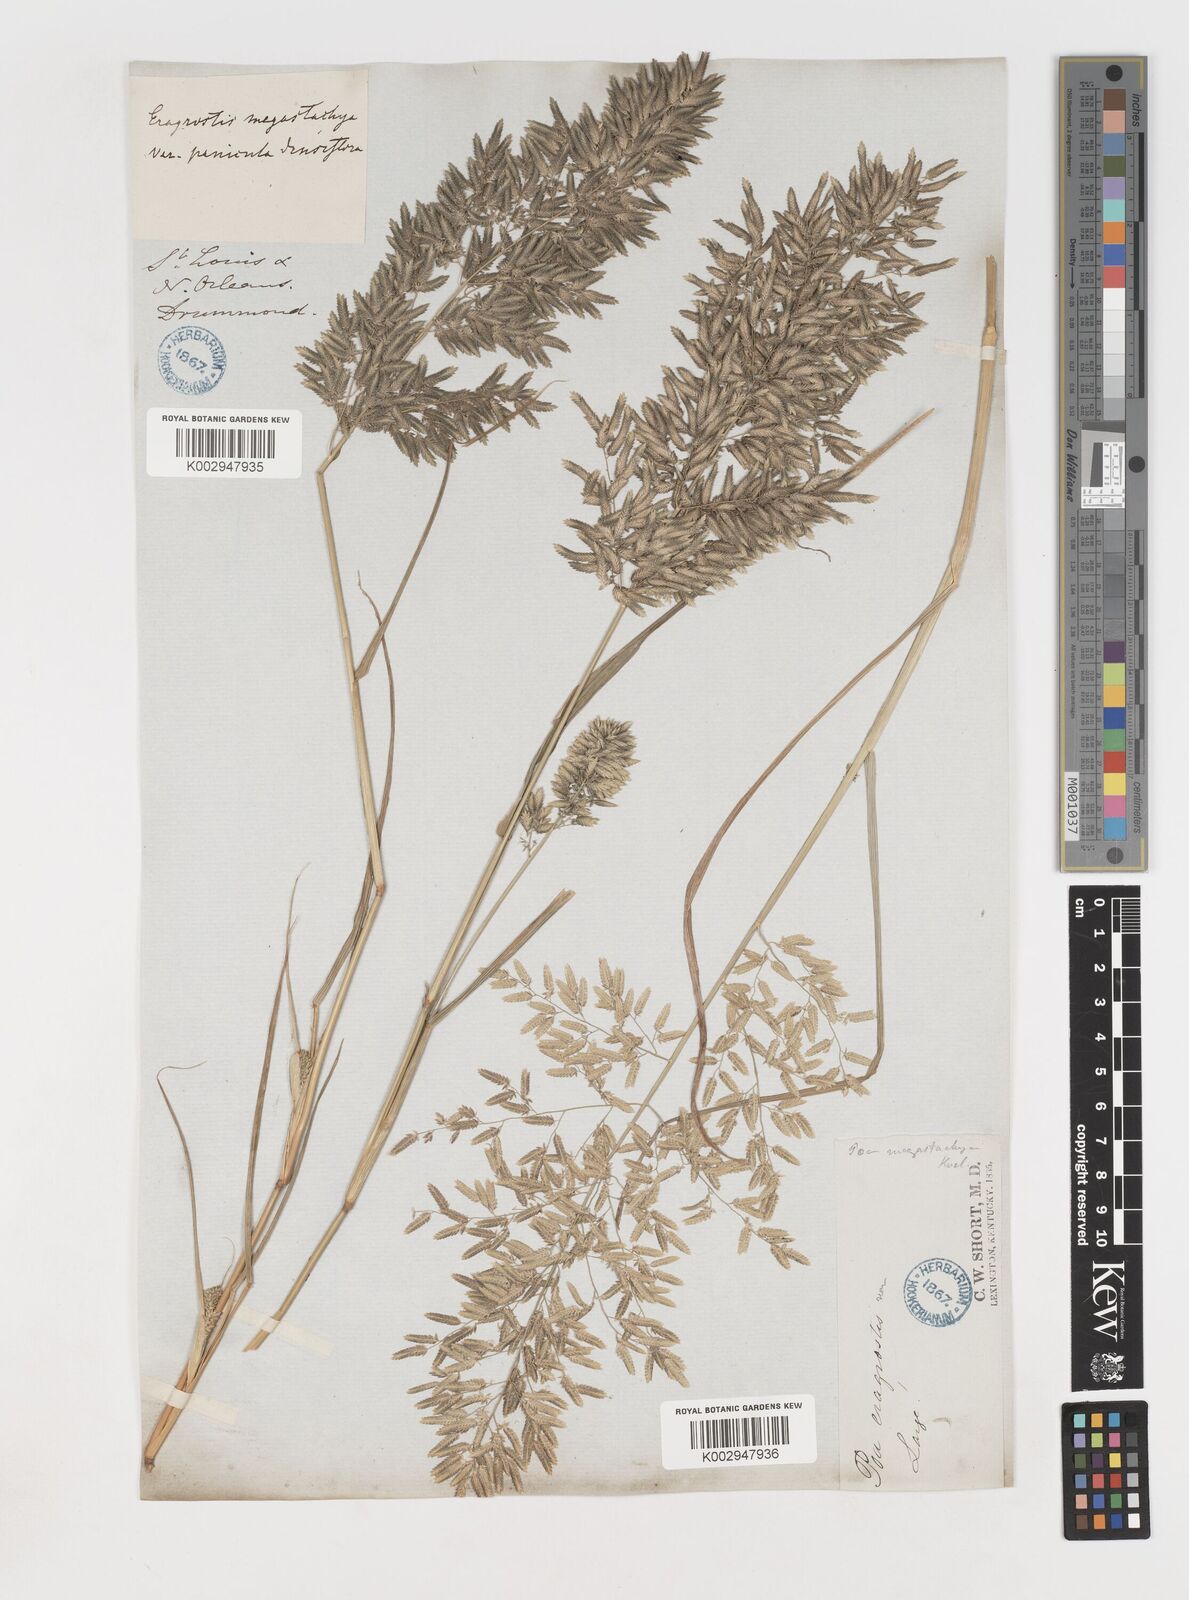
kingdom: Plantae
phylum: Tracheophyta
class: Liliopsida
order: Poales
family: Poaceae
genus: Eragrostis
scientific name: Eragrostis
